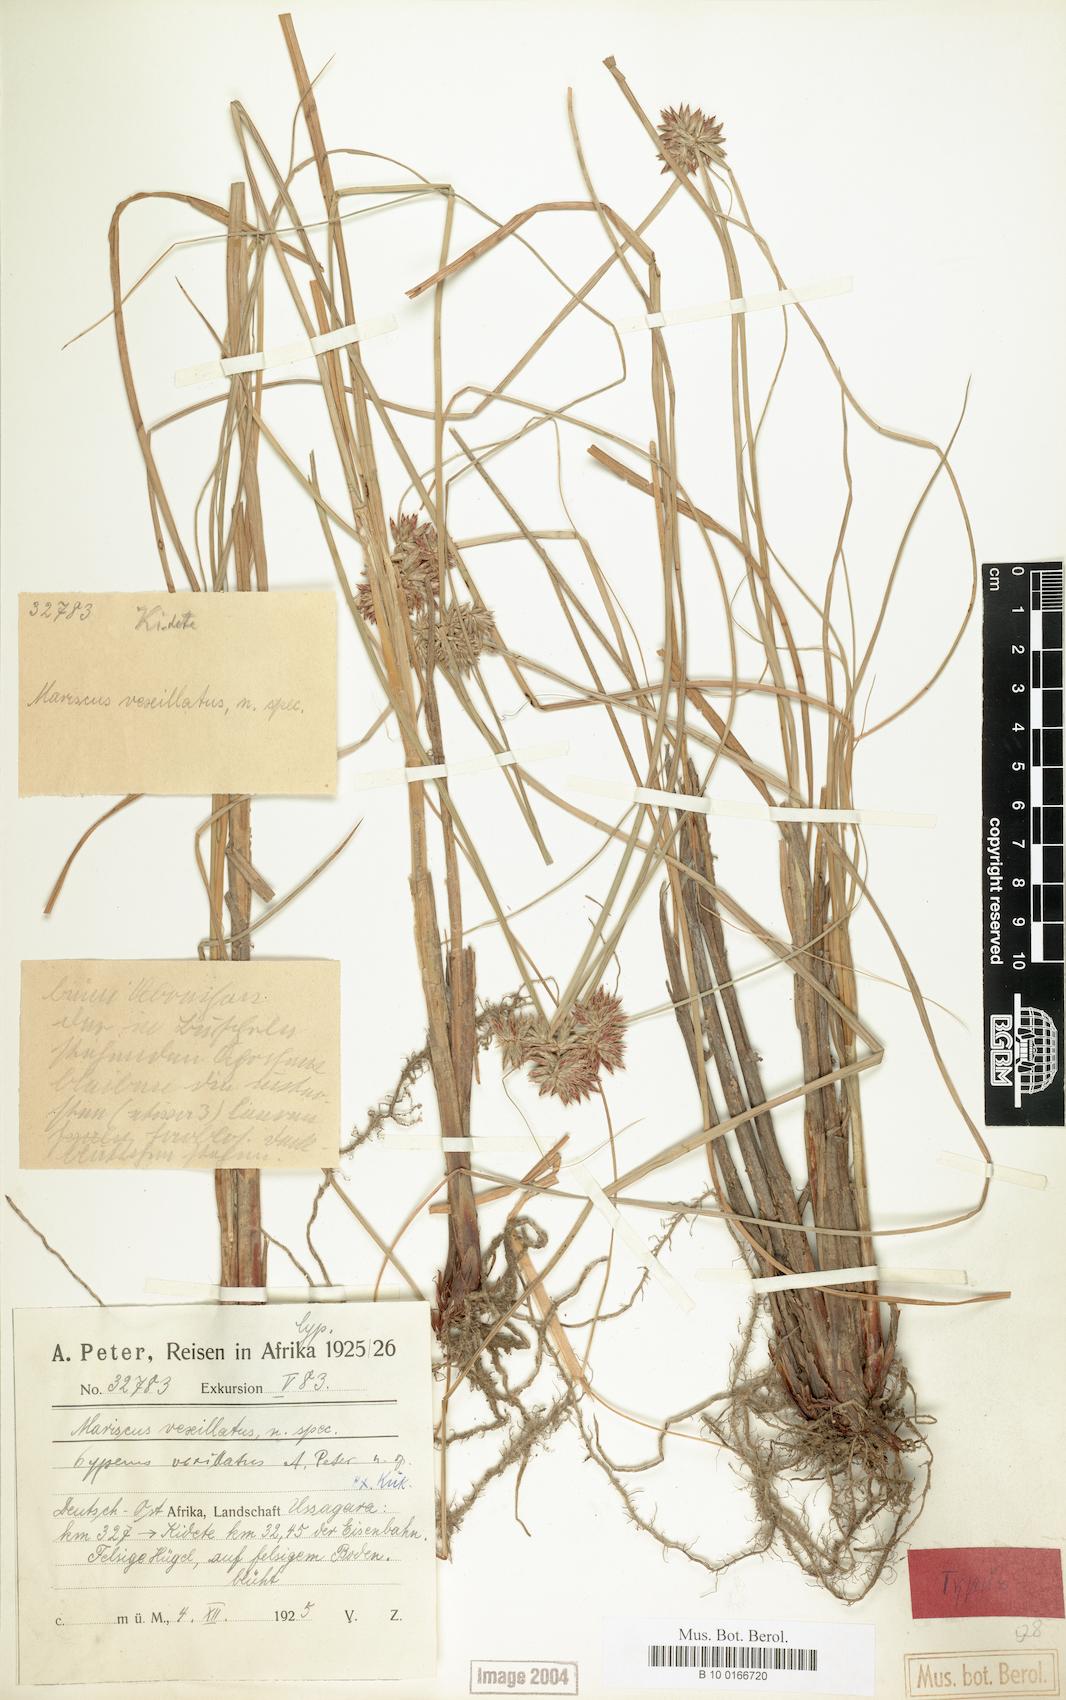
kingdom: Plantae
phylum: Tracheophyta
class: Liliopsida
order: Poales
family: Cyperaceae
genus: Cyperus
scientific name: Cyperus cruentus
